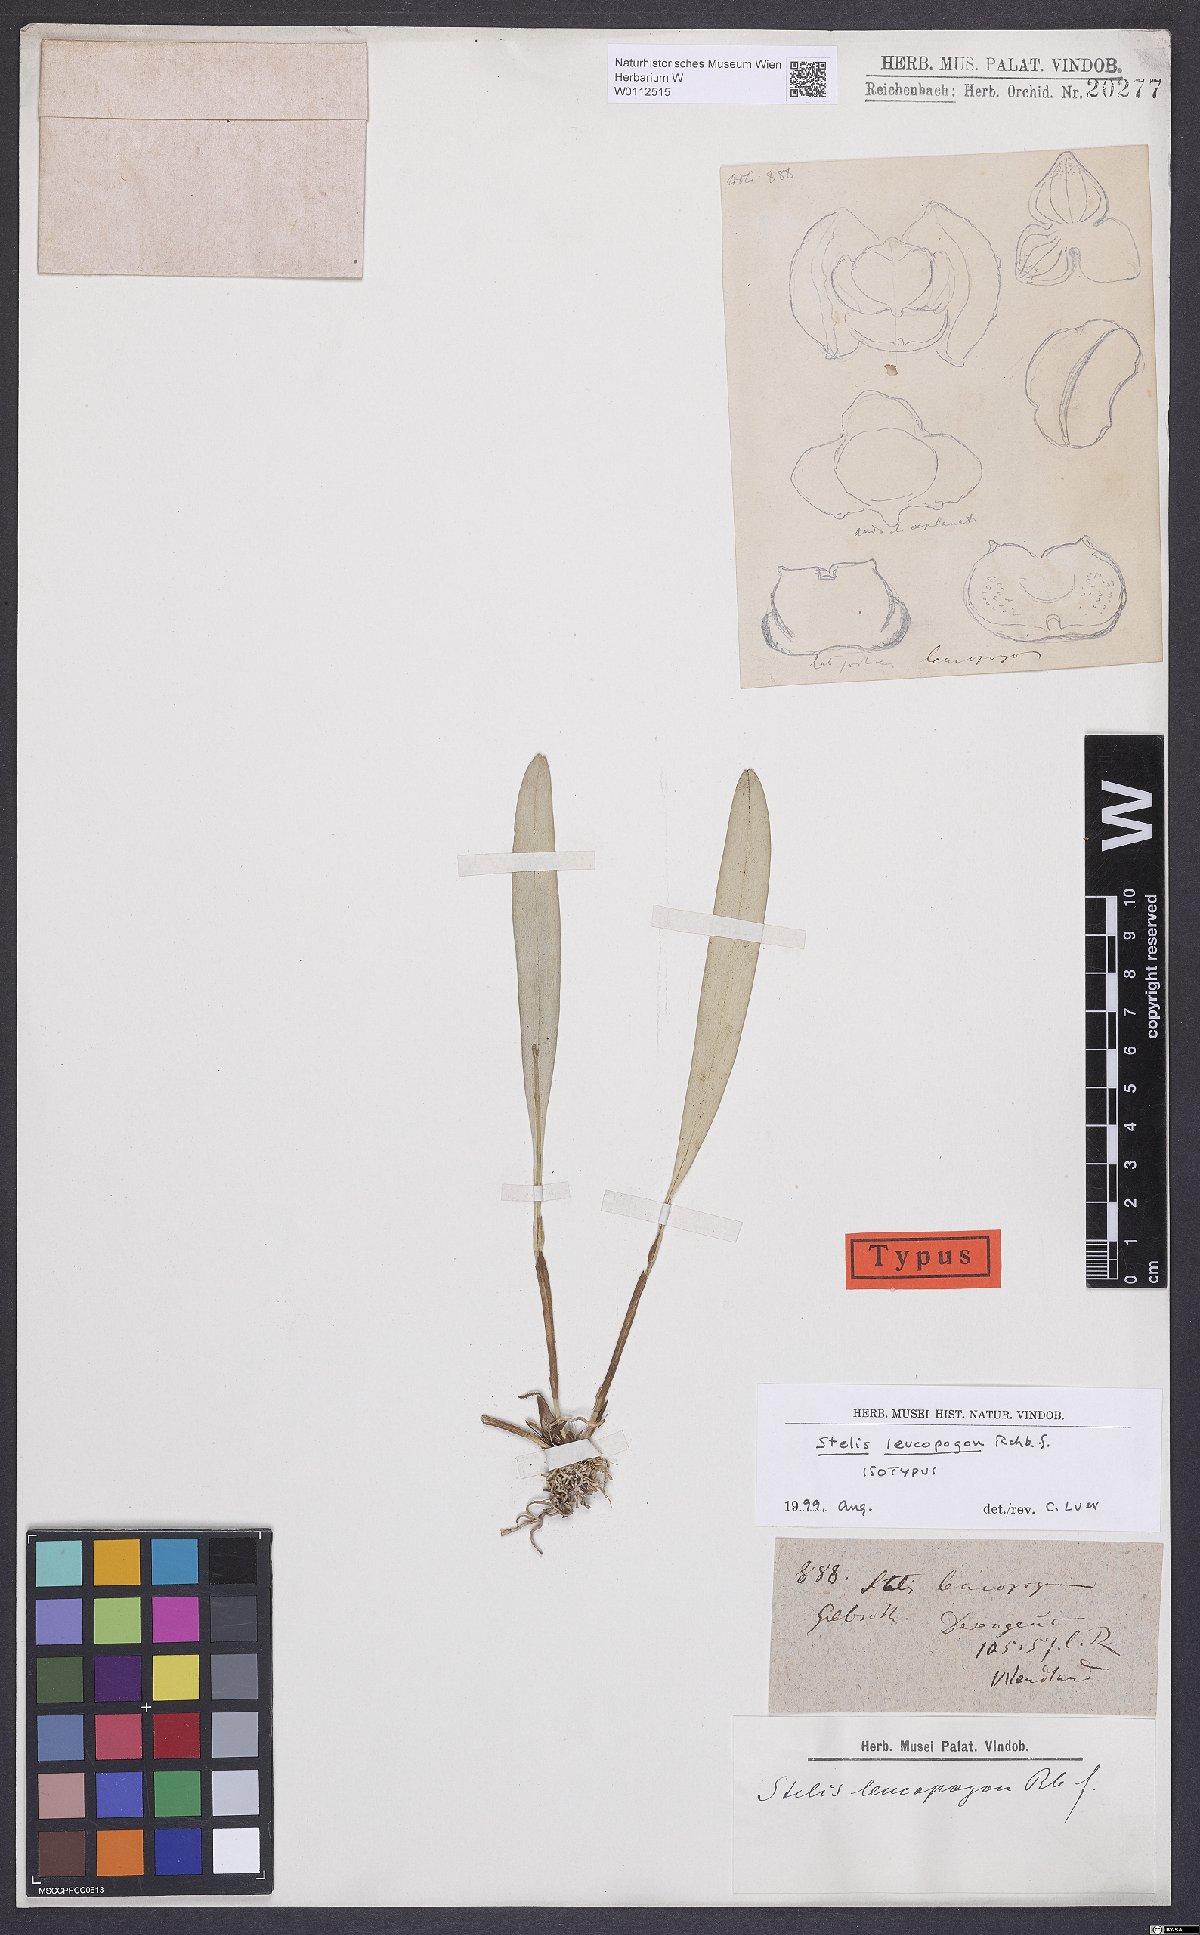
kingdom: Plantae
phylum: Tracheophyta
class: Liliopsida
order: Asparagales
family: Orchidaceae
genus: Stelis
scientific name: Stelis superbiens
